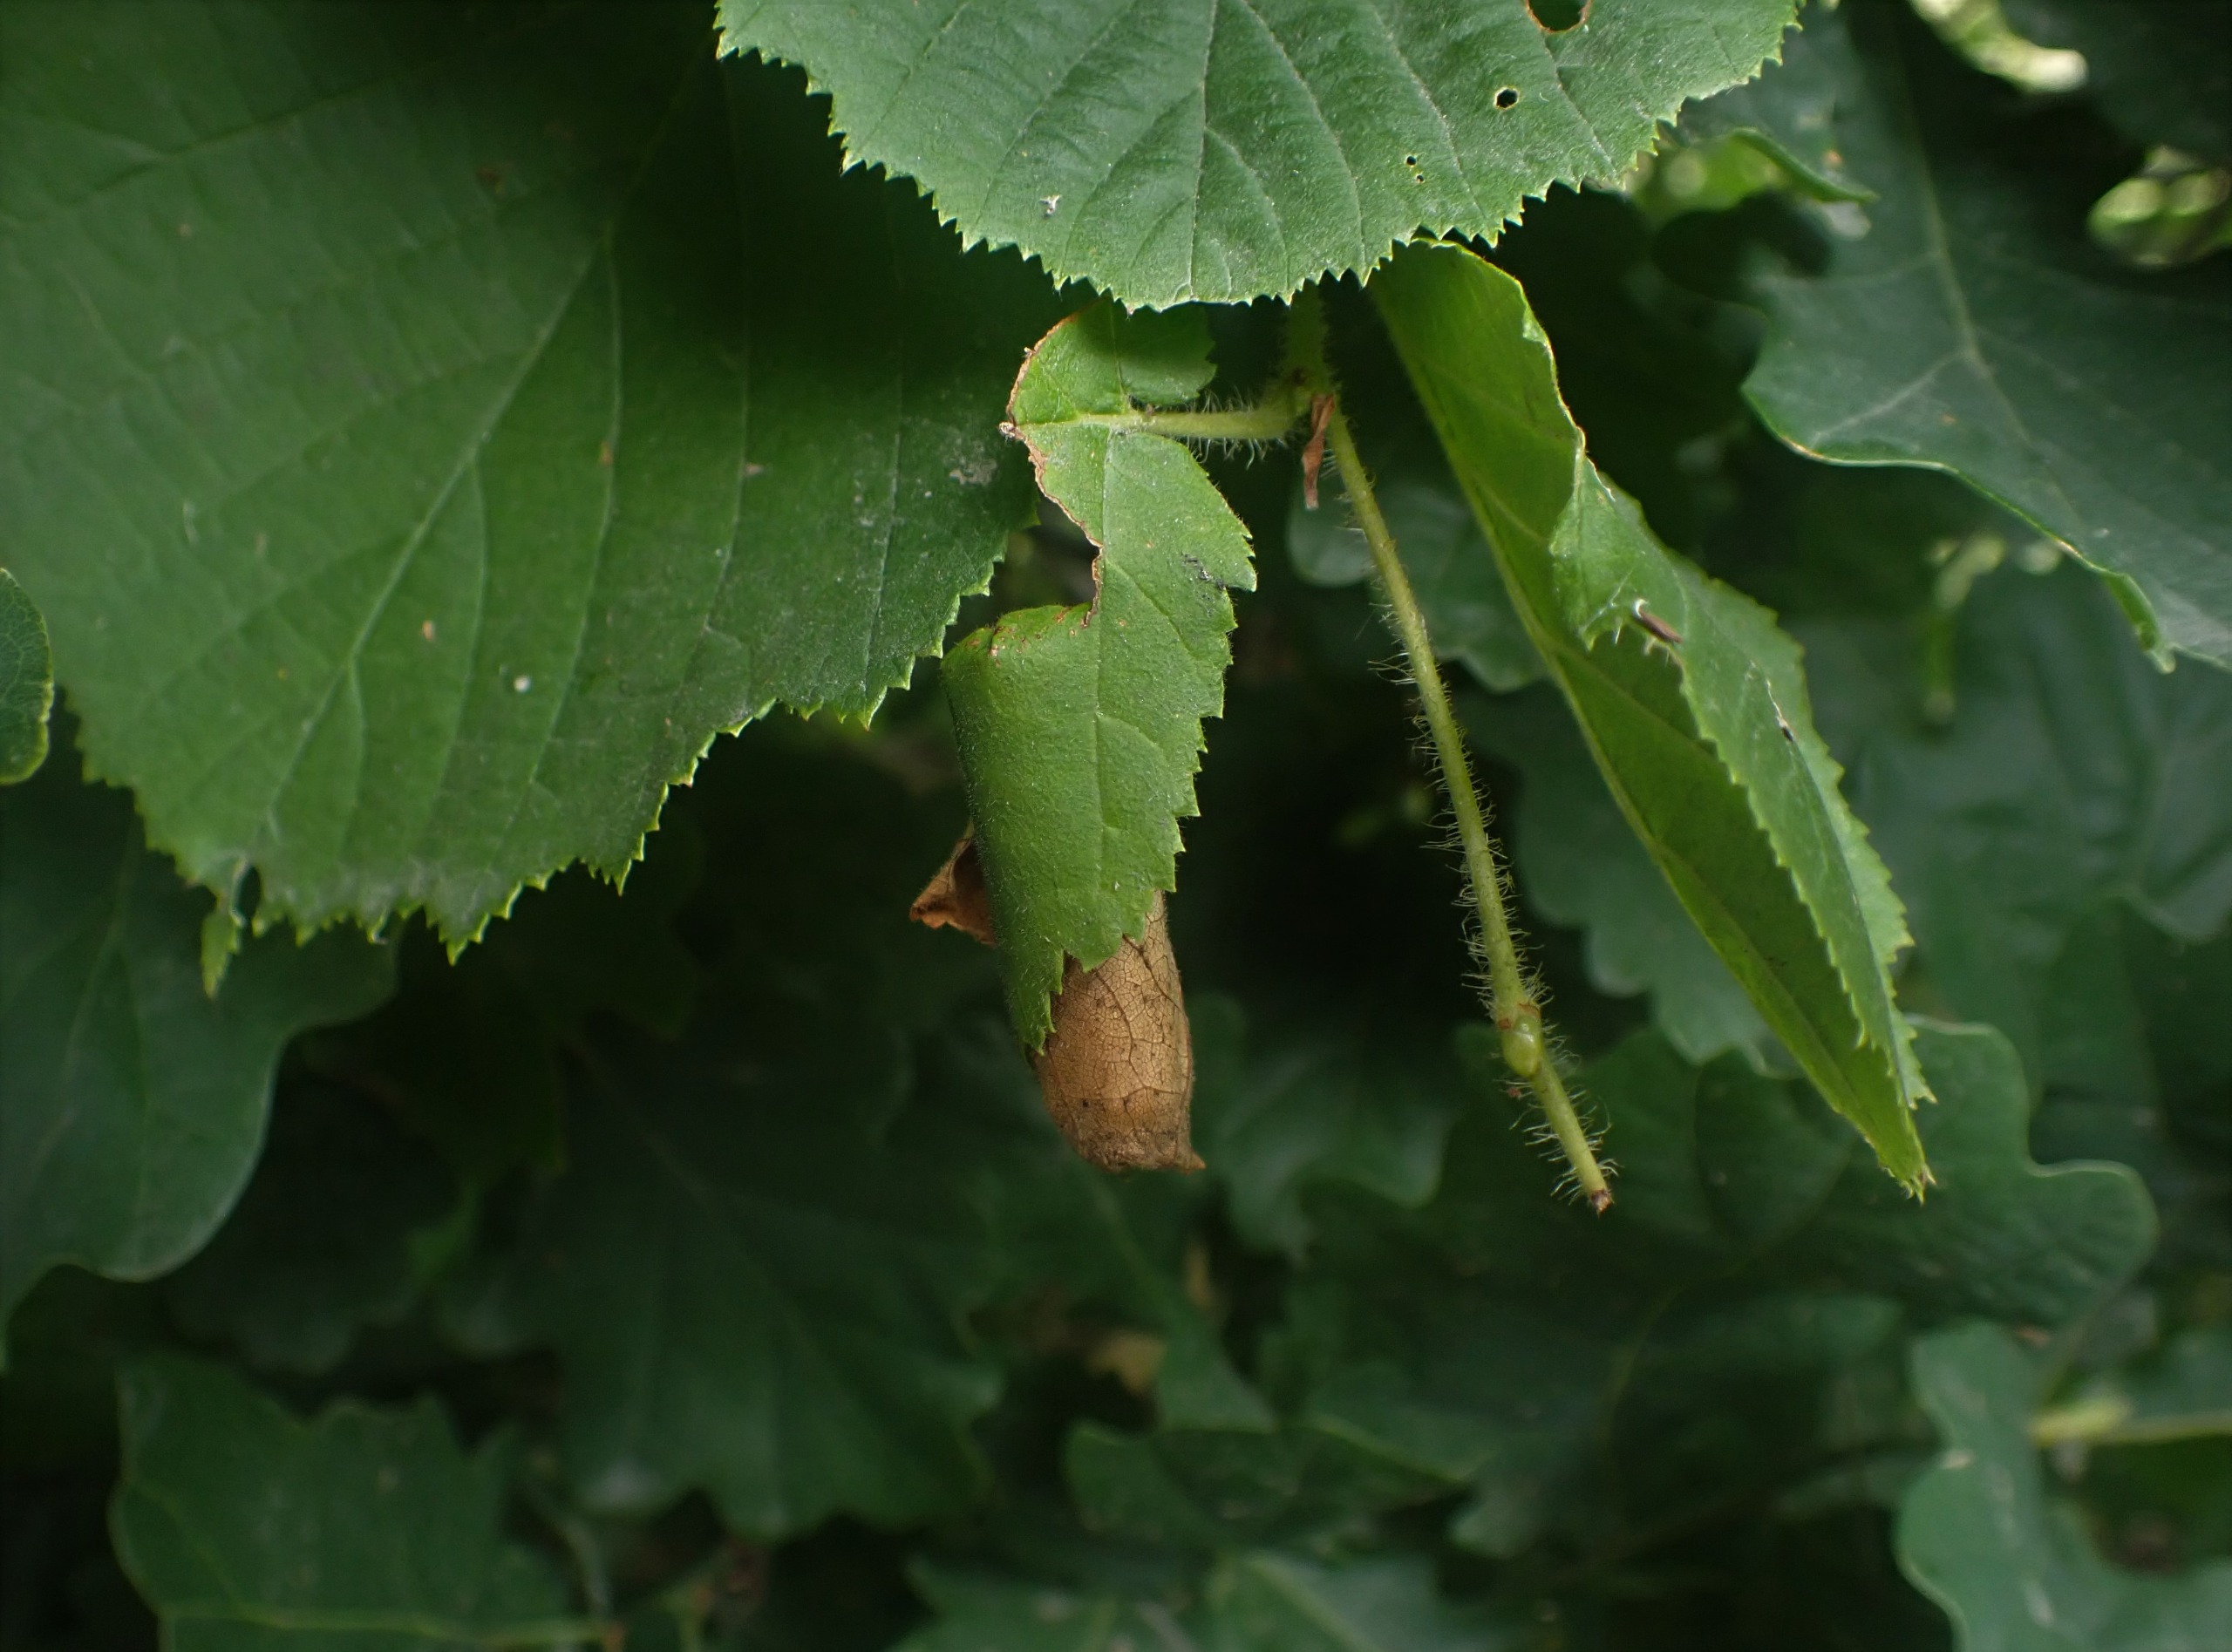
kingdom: Animalia
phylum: Arthropoda
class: Insecta
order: Coleoptera
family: Attelabidae
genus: Apoderus
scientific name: Apoderus coryli
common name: Hasselbladruller
